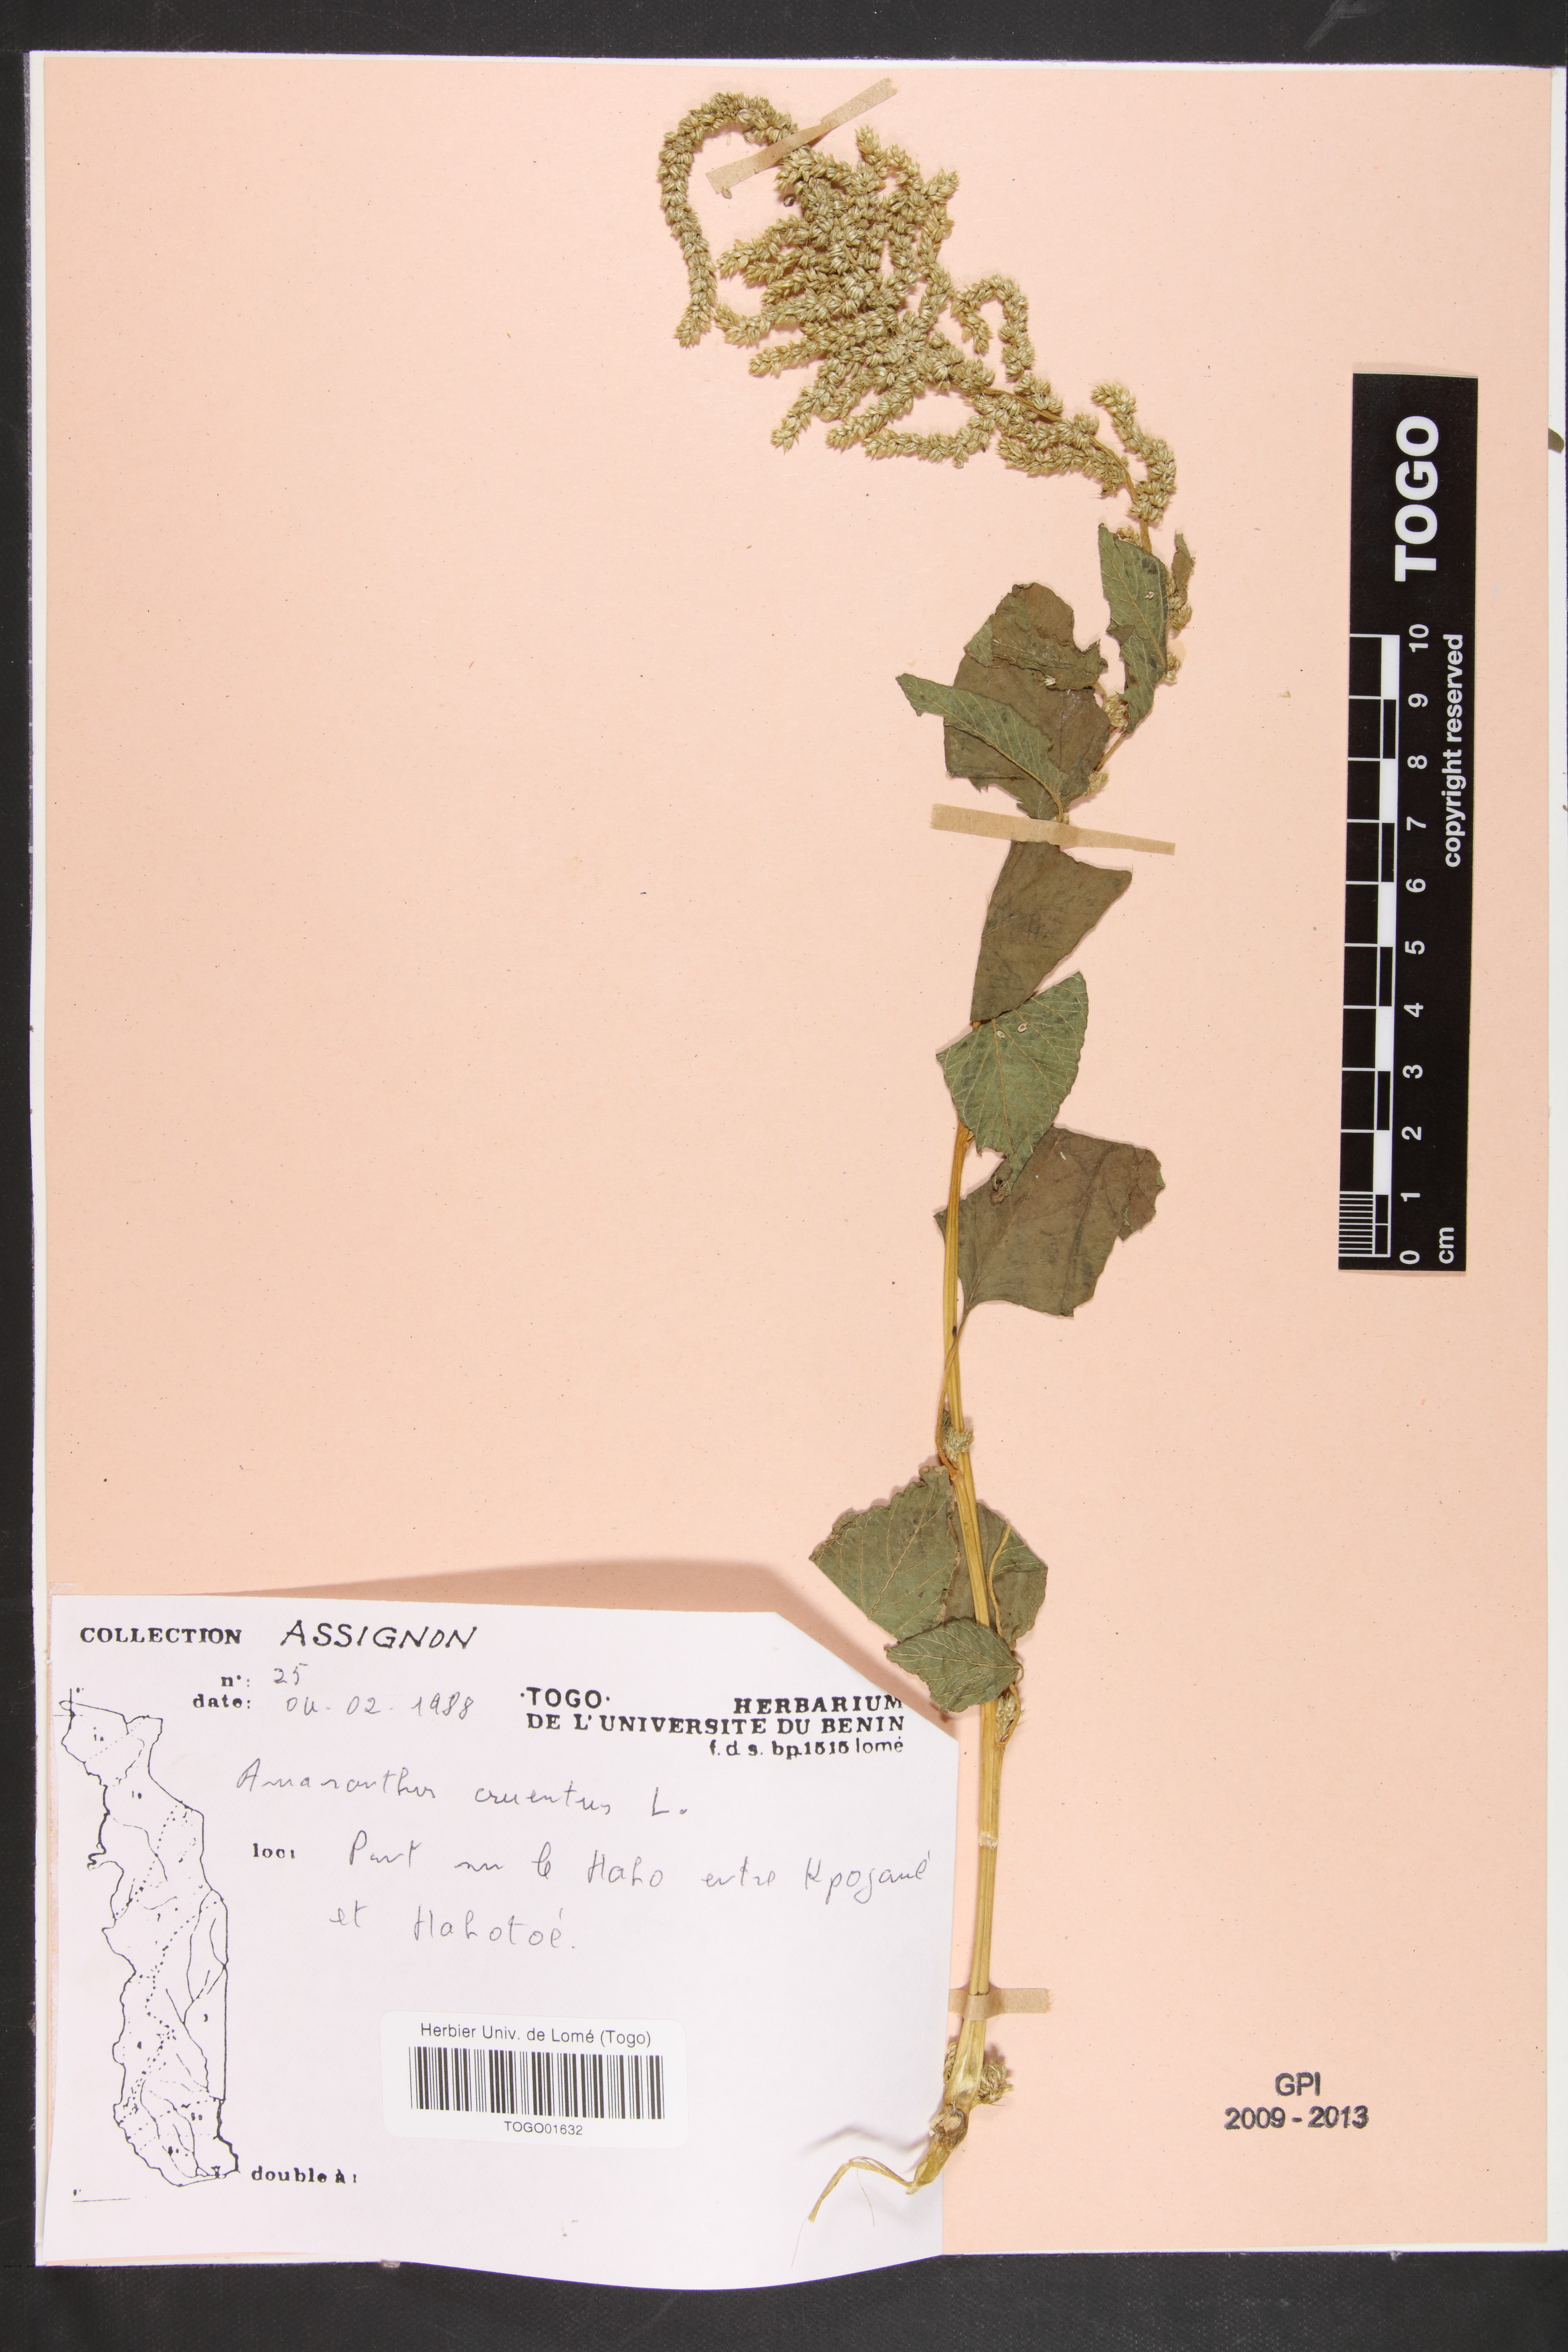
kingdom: Plantae
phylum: Tracheophyta
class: Magnoliopsida
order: Caryophyllales
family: Amaranthaceae
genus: Amaranthus
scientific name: Amaranthus cruentus
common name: Purple amaranth
